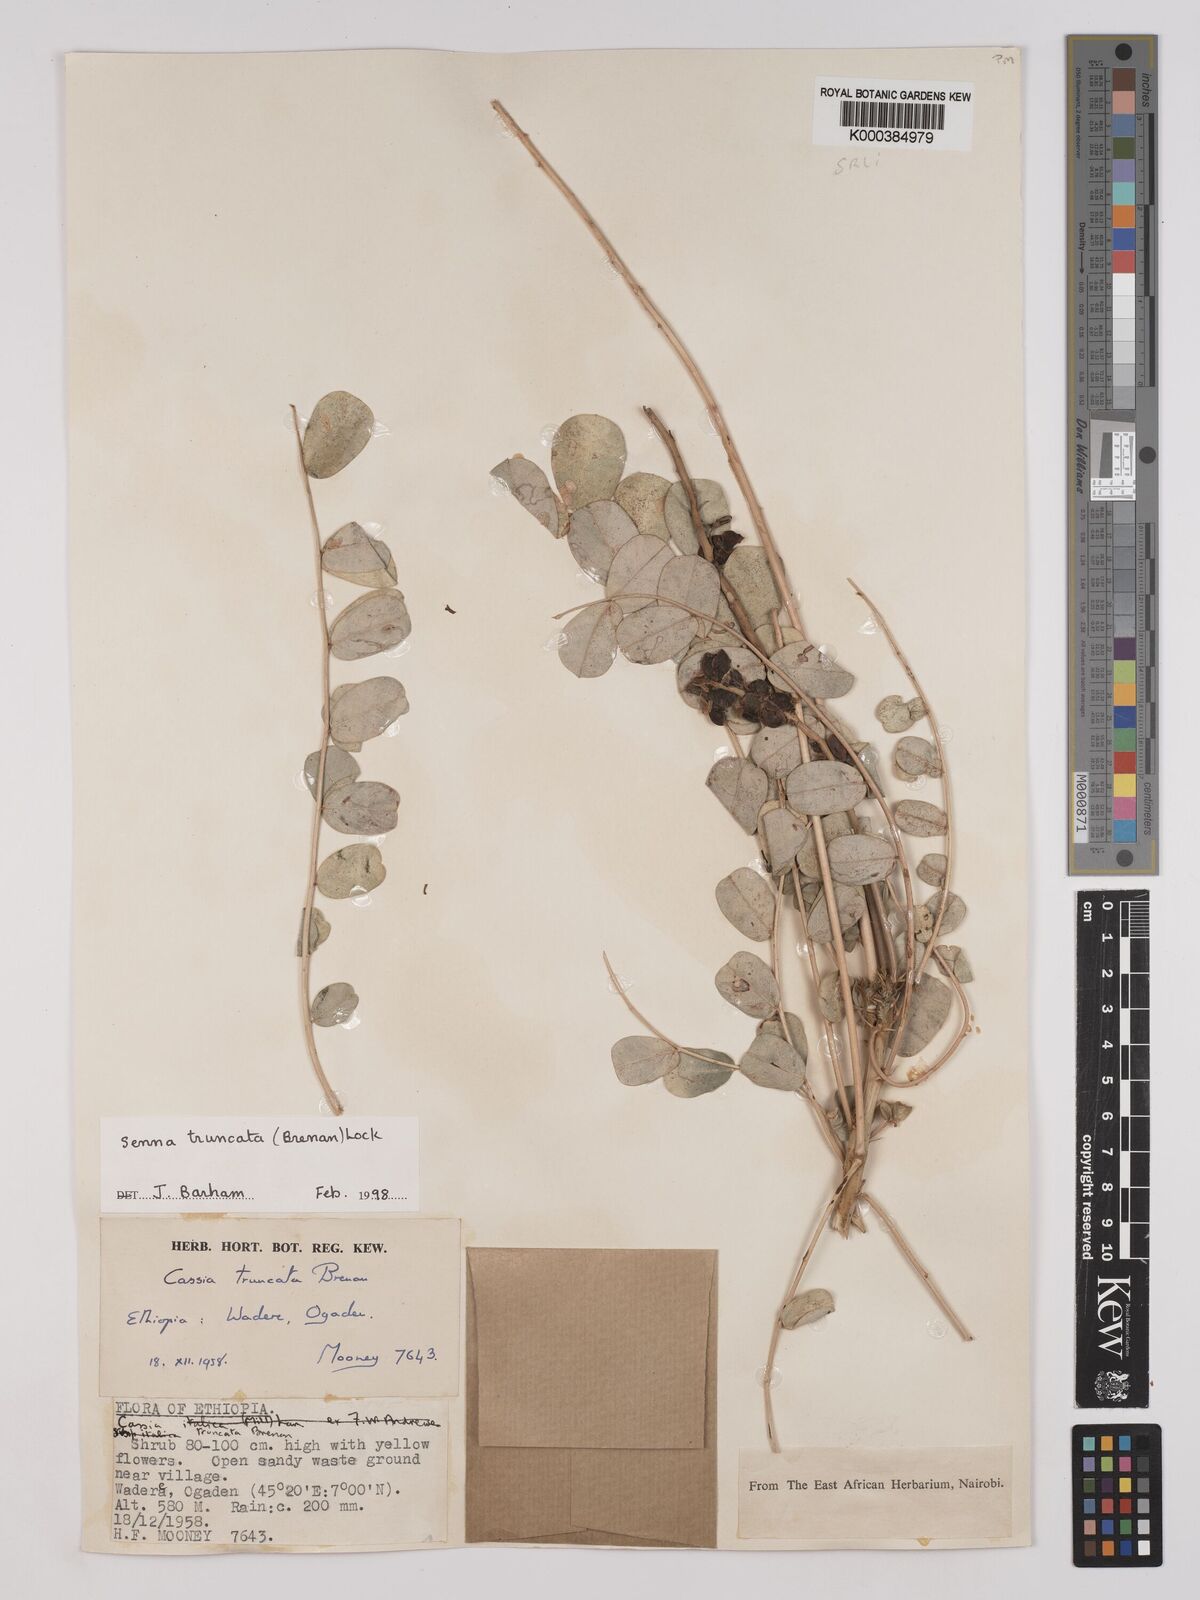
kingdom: Plantae
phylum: Tracheophyta
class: Magnoliopsida
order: Fabales
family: Fabaceae
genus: Senna
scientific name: Senna truncata
